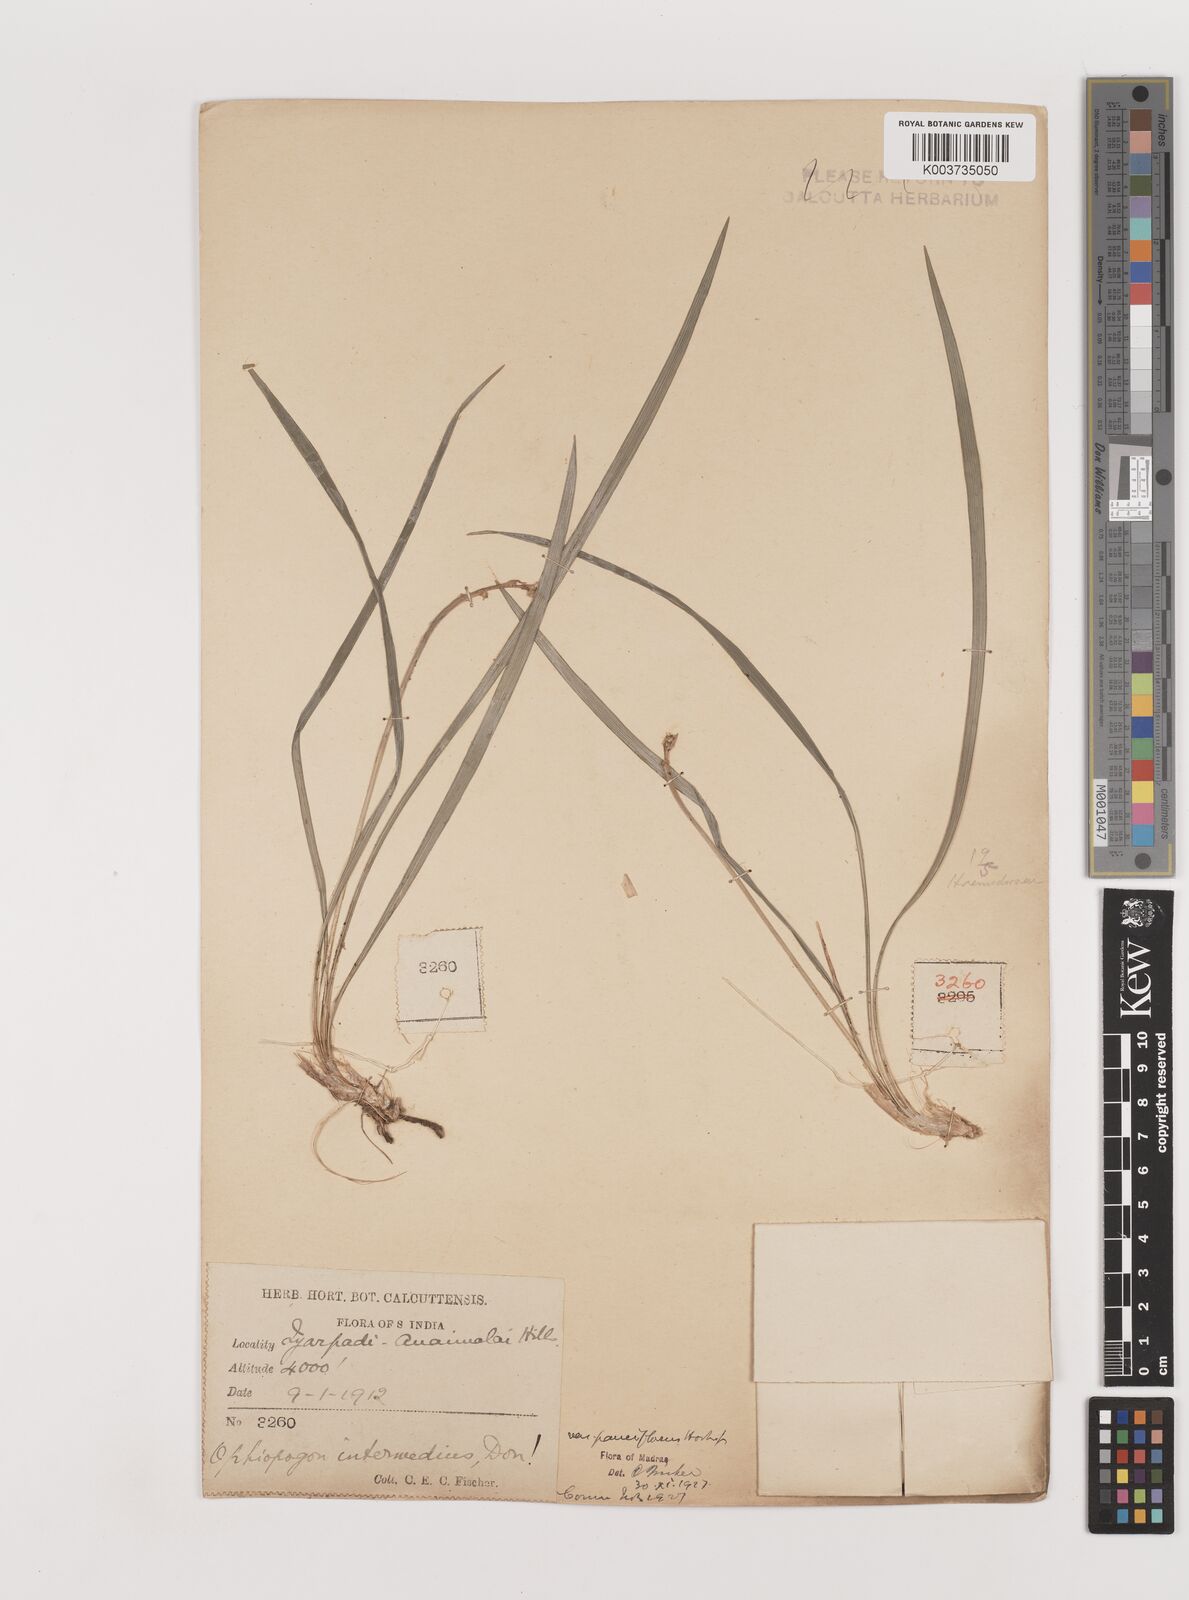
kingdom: Plantae
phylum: Tracheophyta
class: Liliopsida
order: Asparagales
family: Asparagaceae
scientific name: Asparagaceae
